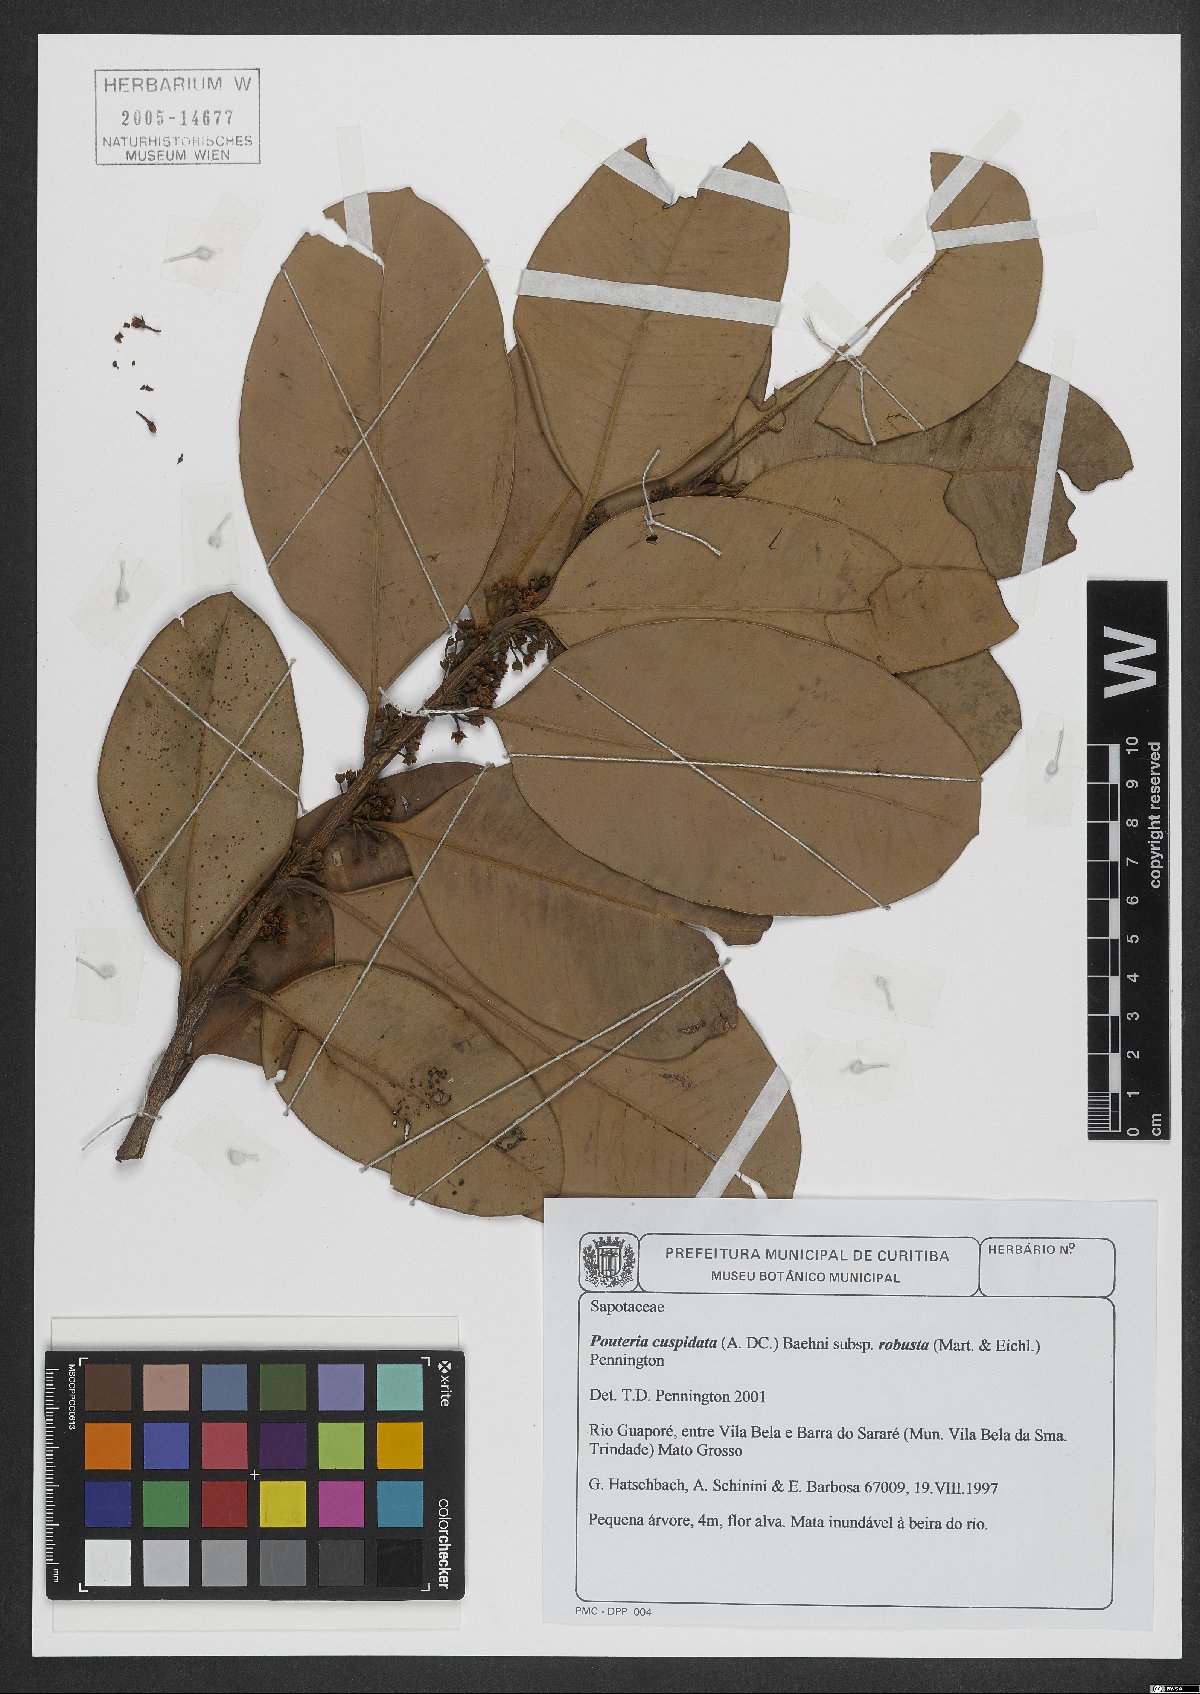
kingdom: Plantae
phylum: Tracheophyta
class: Magnoliopsida
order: Ericales
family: Sapotaceae
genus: Pouteria
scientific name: Pouteria cuspidata
